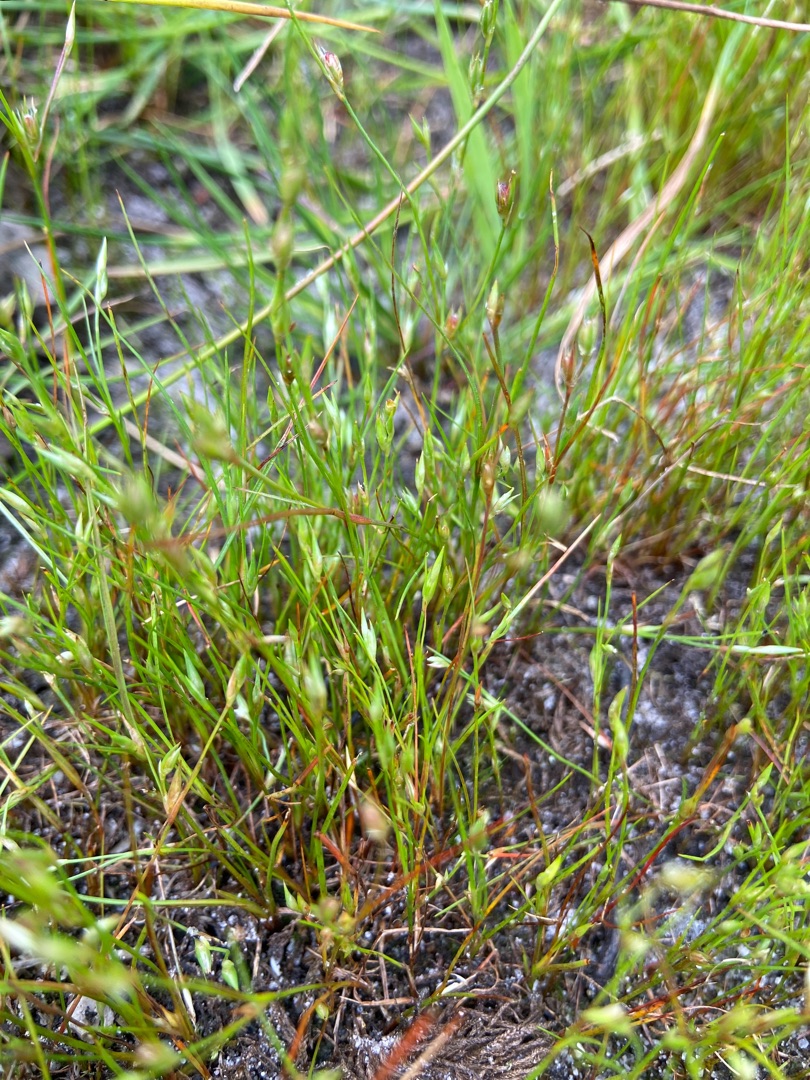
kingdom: Plantae
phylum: Tracheophyta
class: Liliopsida
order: Poales
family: Juncaceae
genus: Juncus
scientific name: Juncus bufonius
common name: Tudse-siv
